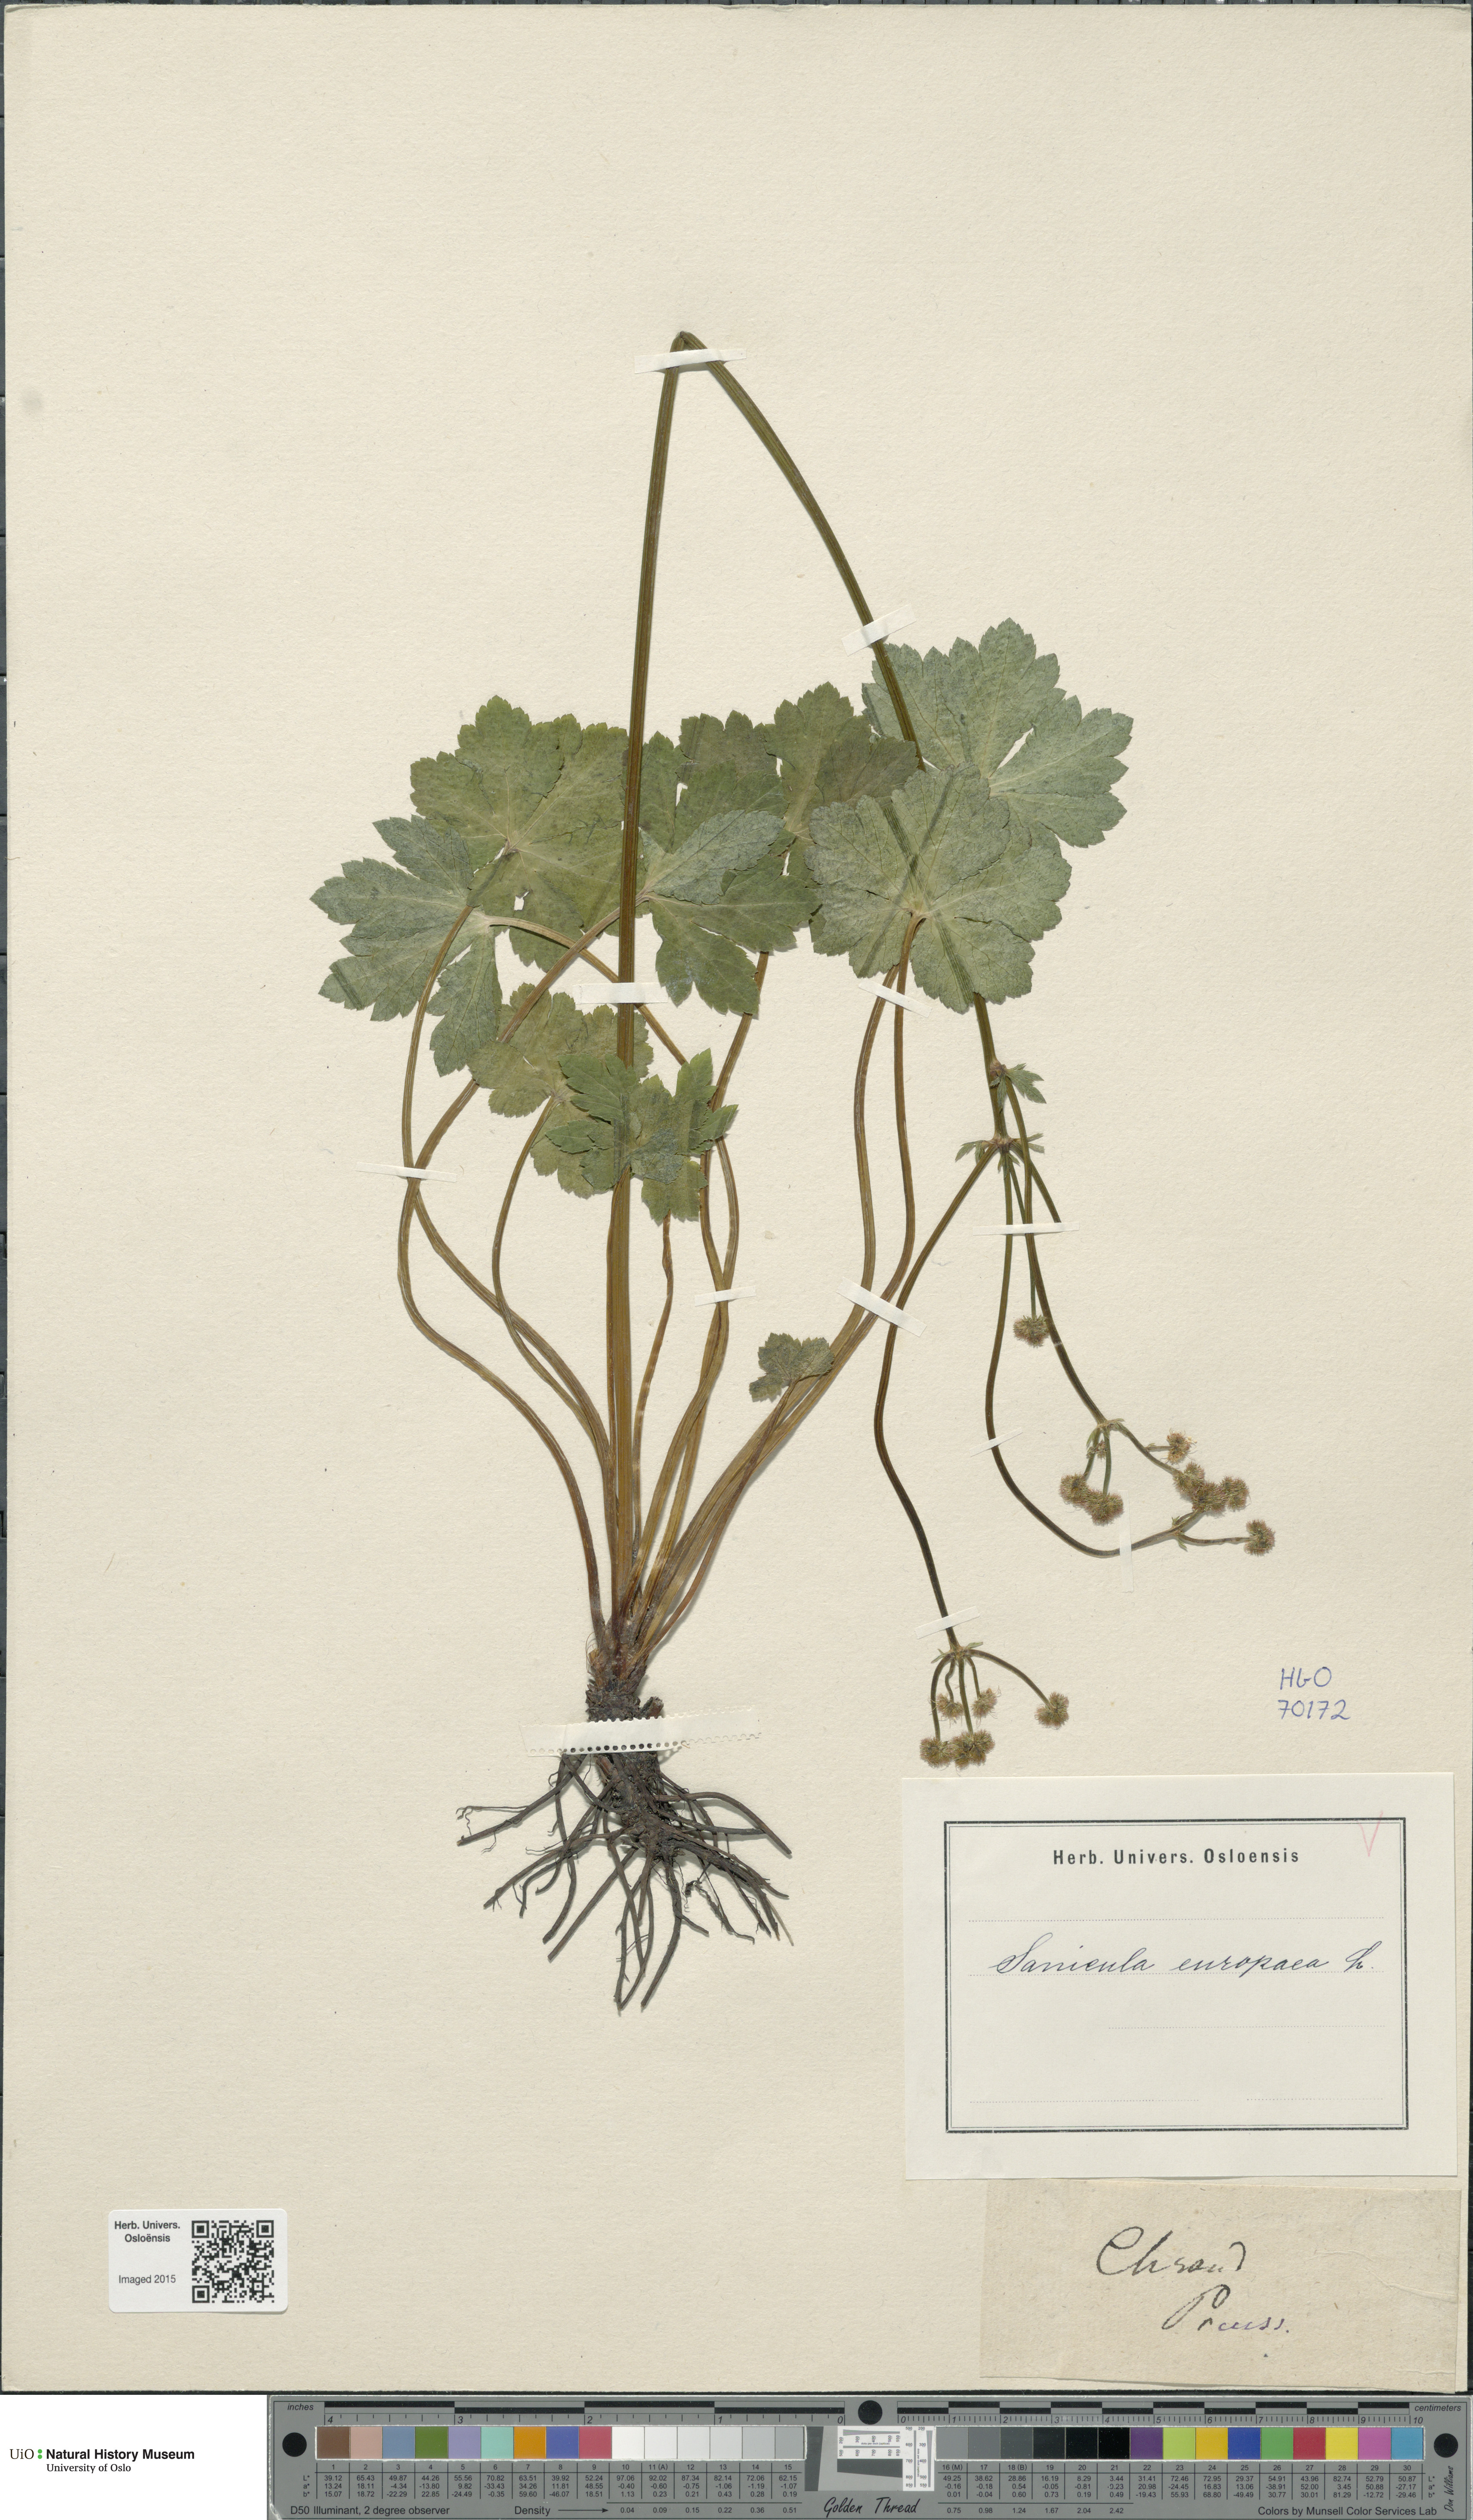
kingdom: Plantae
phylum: Tracheophyta
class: Magnoliopsida
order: Apiales
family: Apiaceae
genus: Sanicula
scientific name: Sanicula europaea
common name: Sanicle
